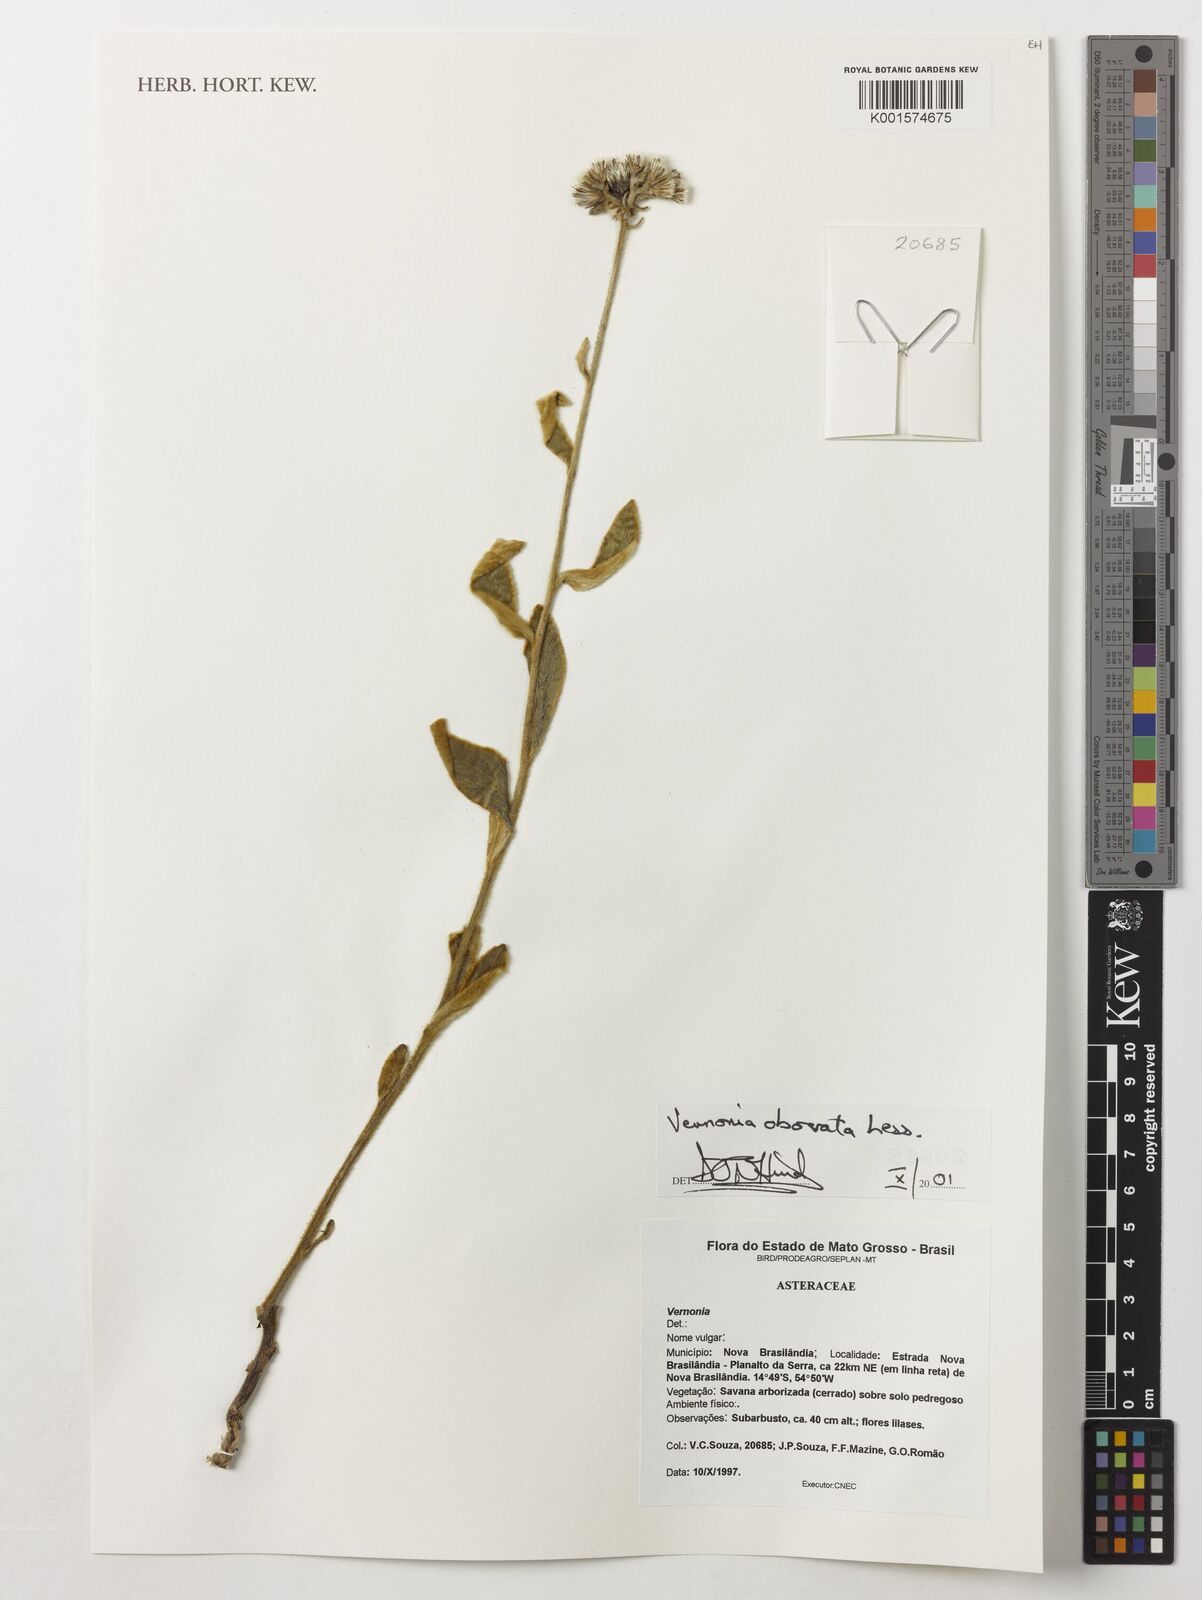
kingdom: Plantae
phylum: Tracheophyta
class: Magnoliopsida
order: Asterales
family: Asteraceae
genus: Chrysolaena
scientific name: Chrysolaena obovata
